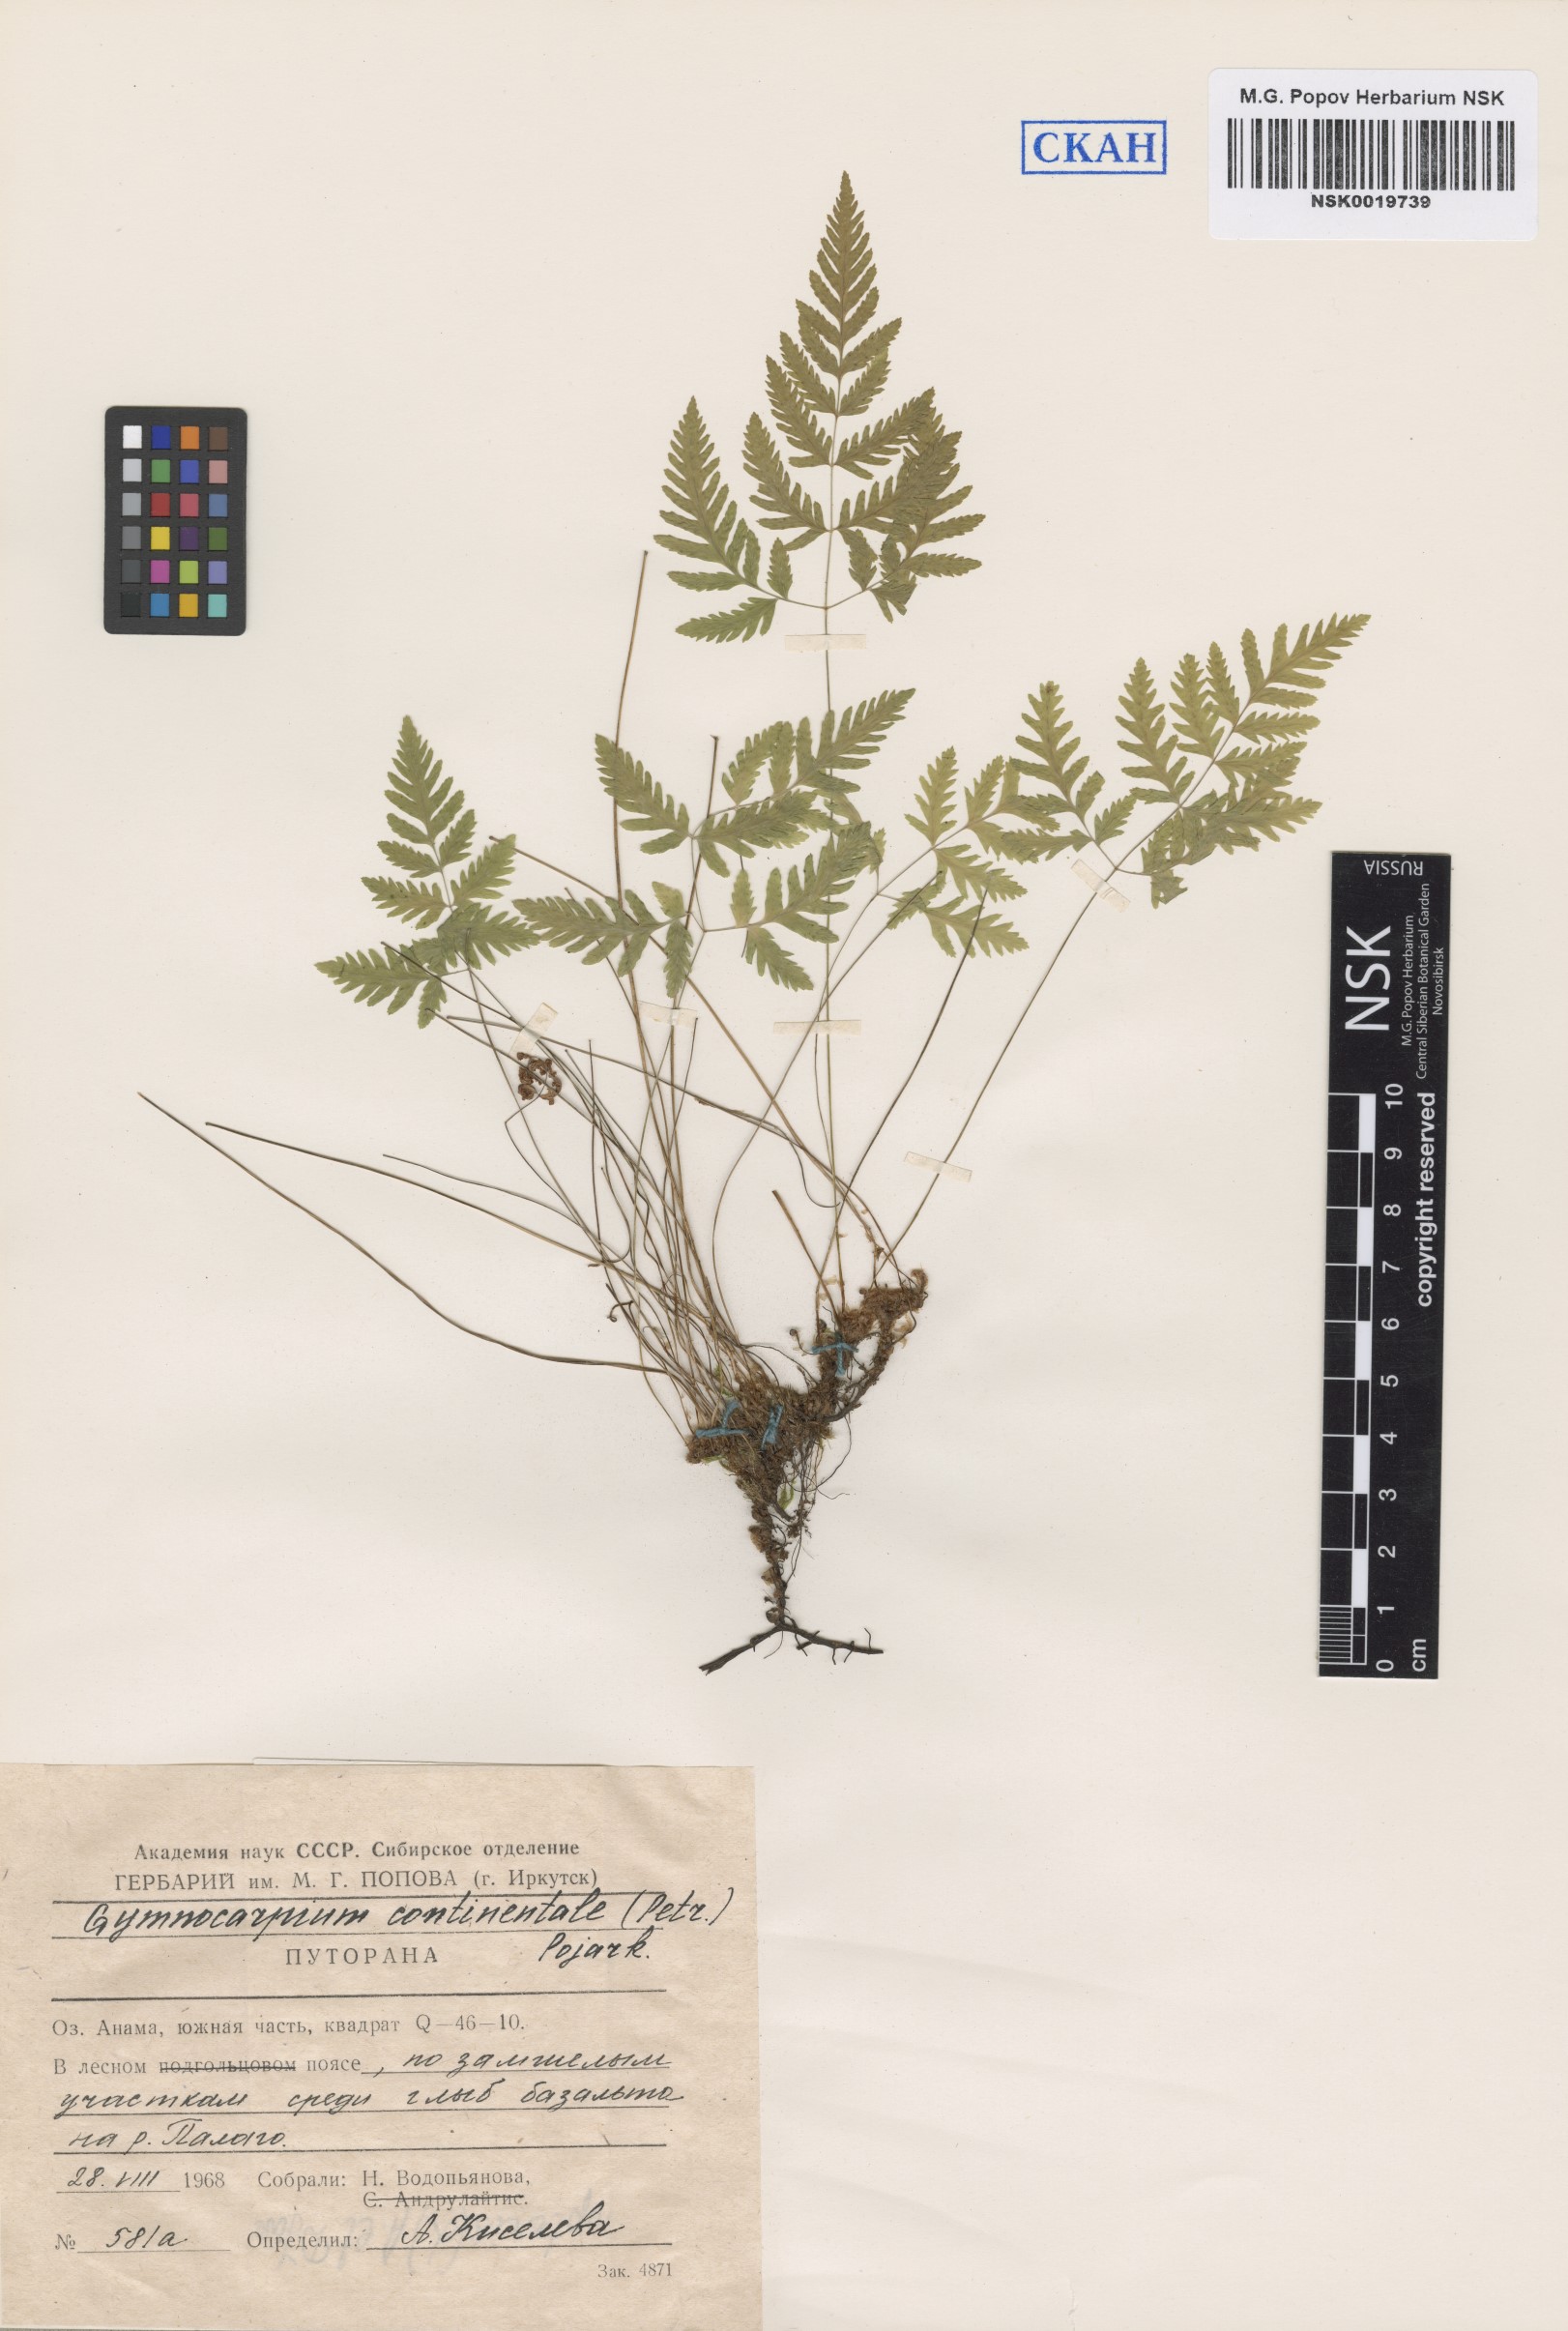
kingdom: Plantae
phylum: Tracheophyta
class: Polypodiopsida
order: Polypodiales
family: Cystopteridaceae
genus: Gymnocarpium
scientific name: Gymnocarpium continentale
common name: Asian oak fern
